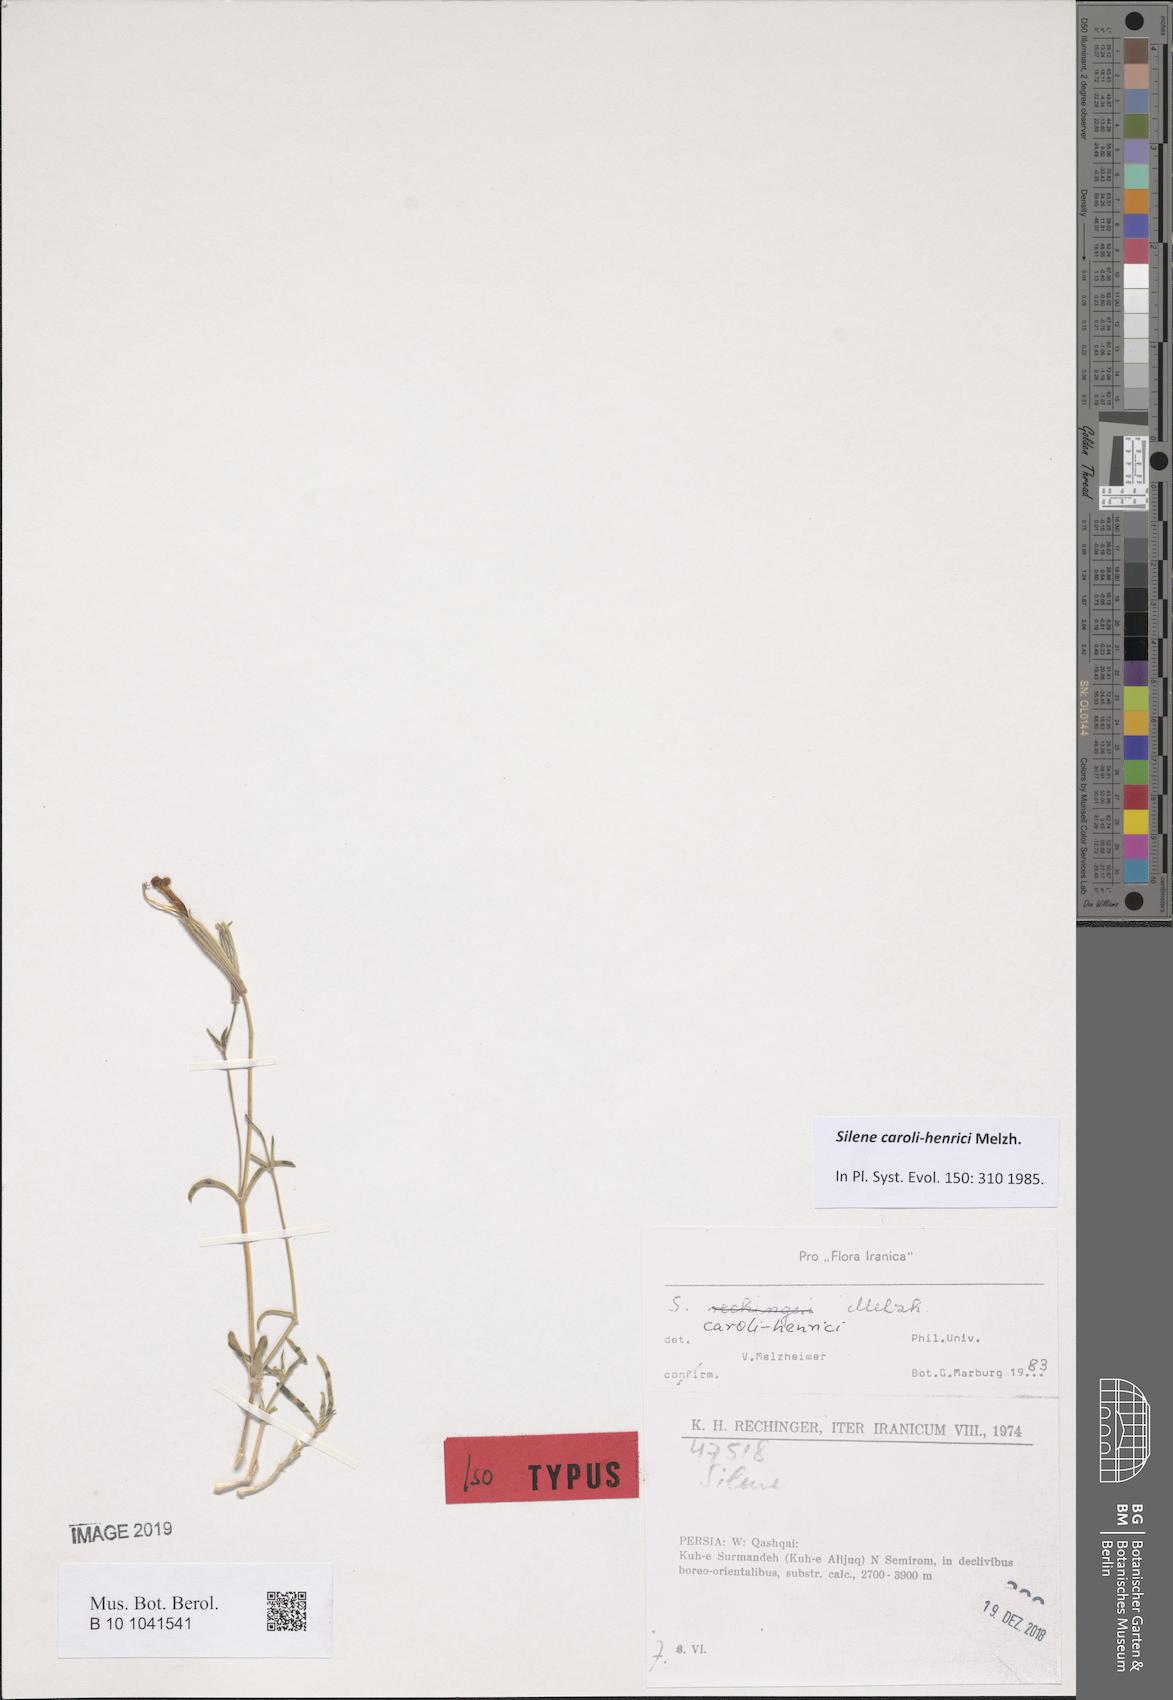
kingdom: Plantae
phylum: Tracheophyta
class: Magnoliopsida
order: Caryophyllales
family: Caryophyllaceae
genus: Silene
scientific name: Silene caroli-henrici
